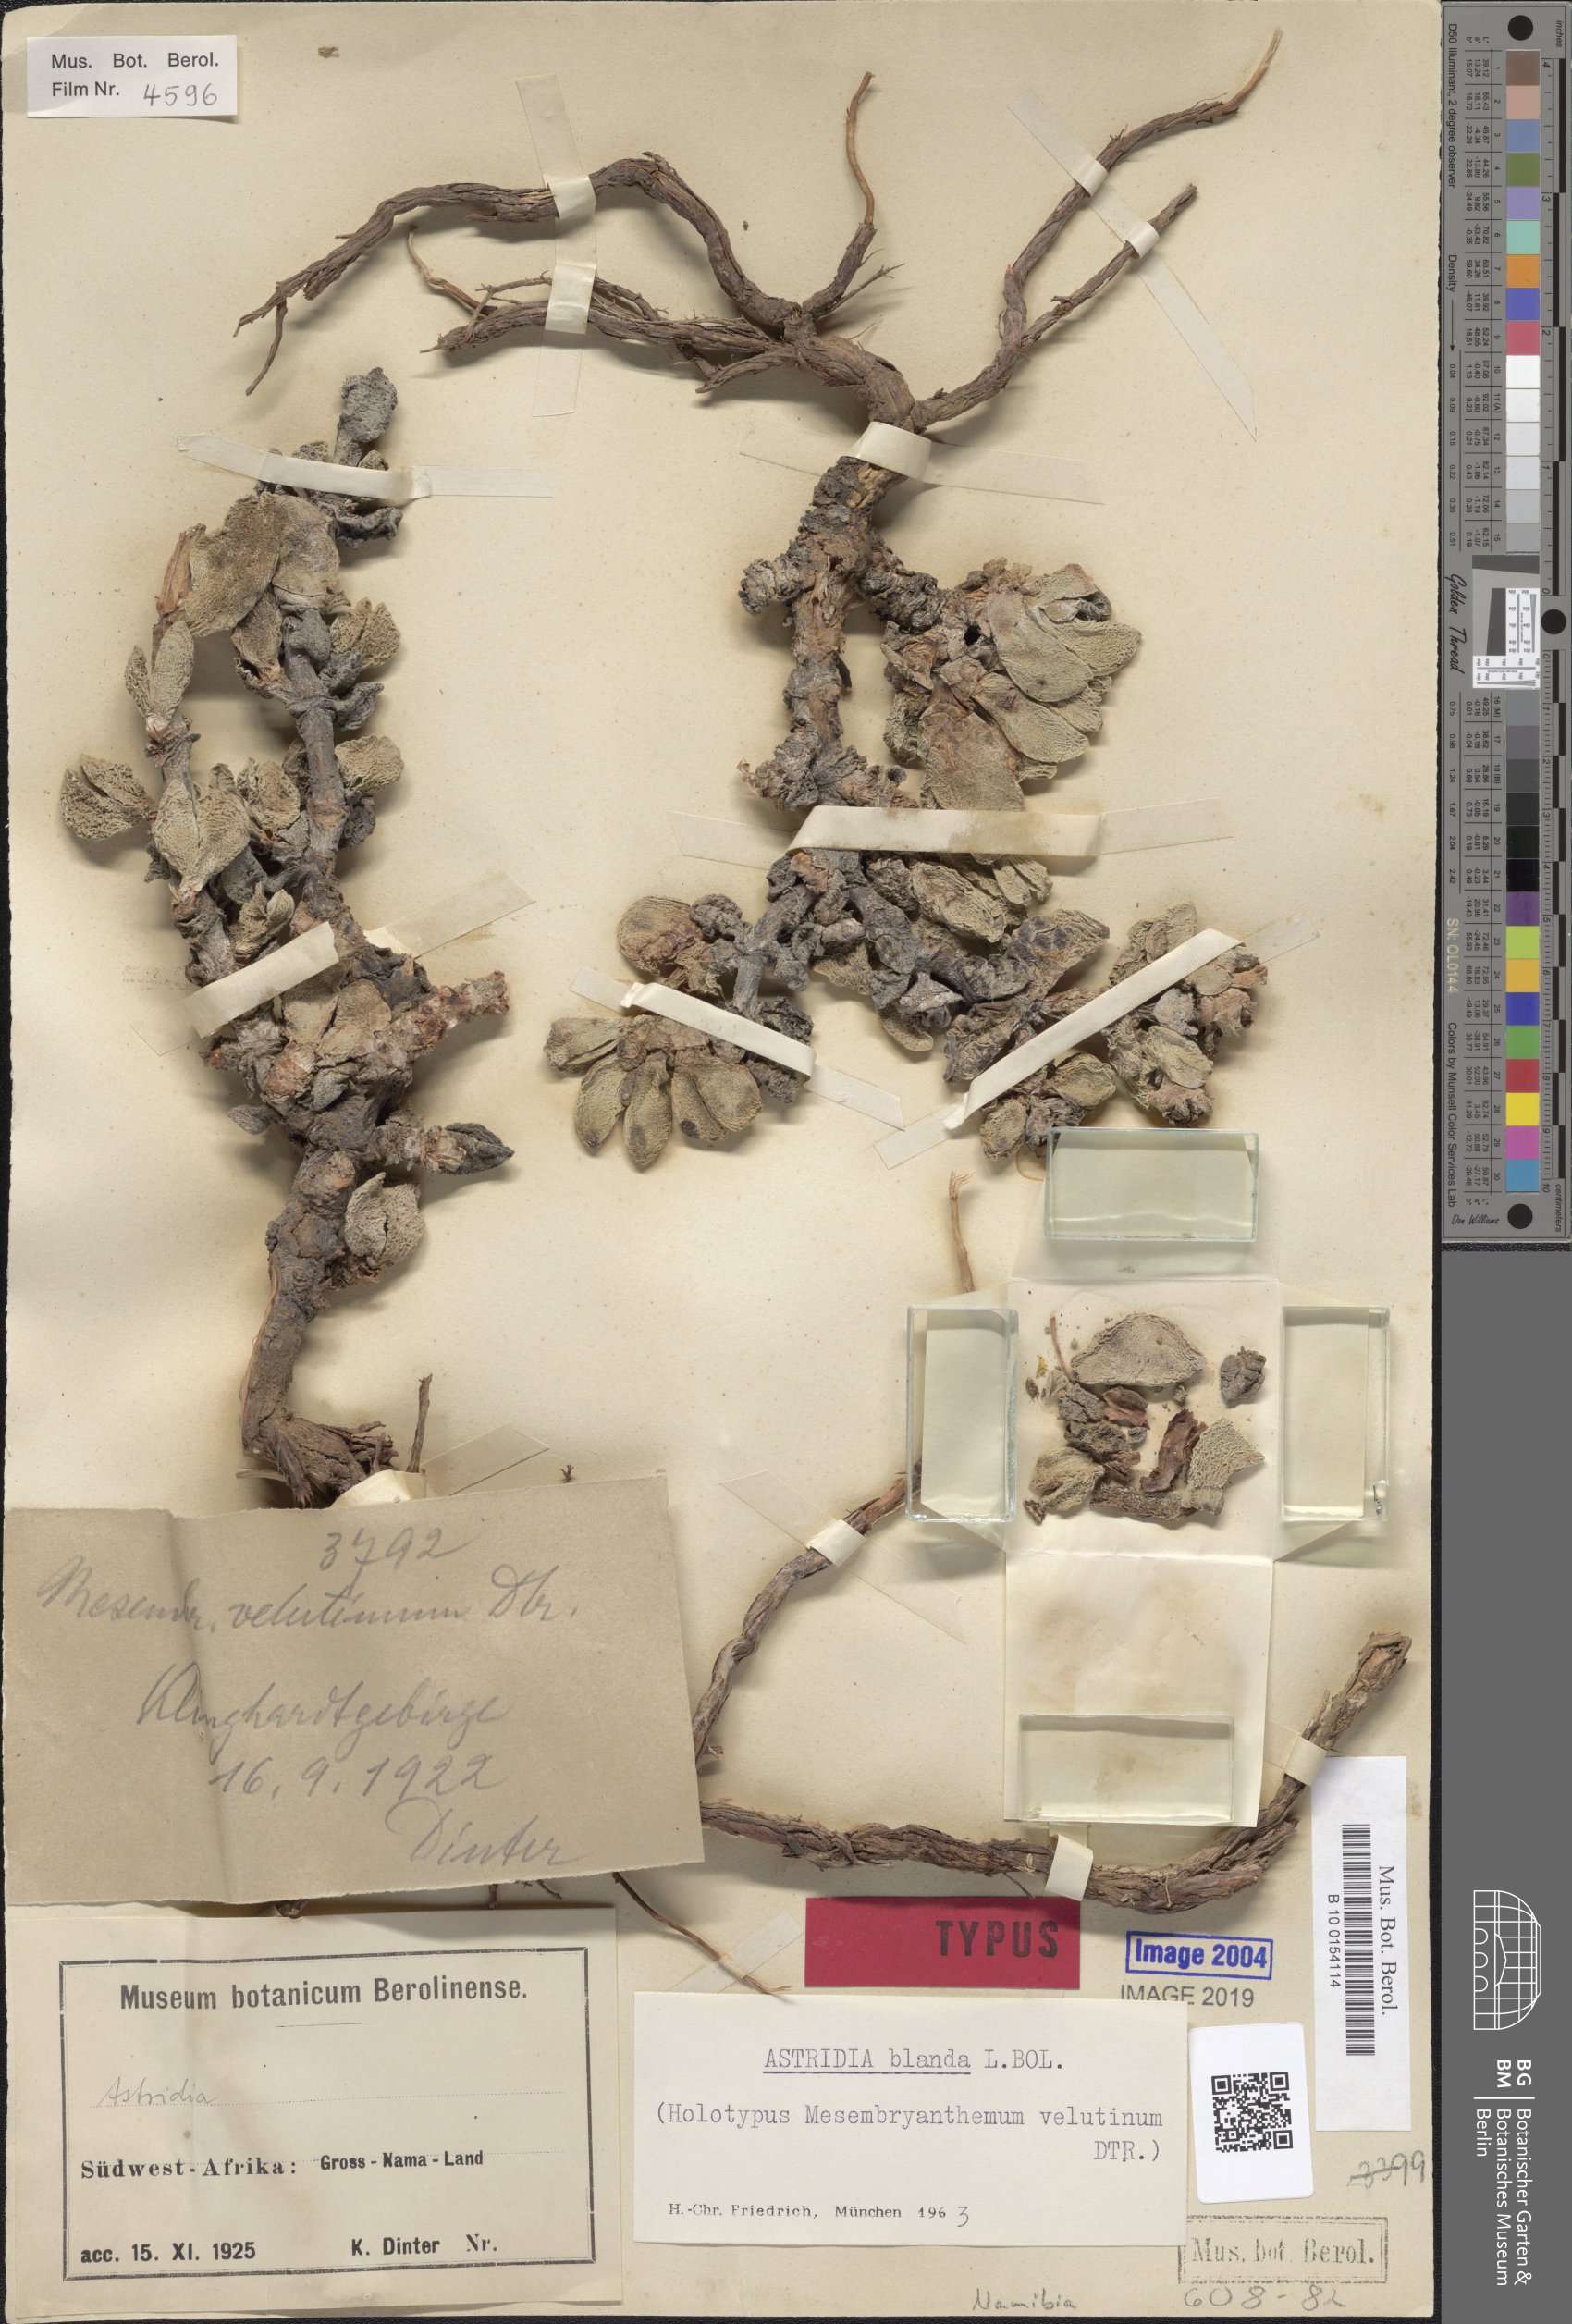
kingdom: Plantae
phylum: Tracheophyta
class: Magnoliopsida
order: Caryophyllales
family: Aizoaceae
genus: Astridia
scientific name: Astridia velutina
